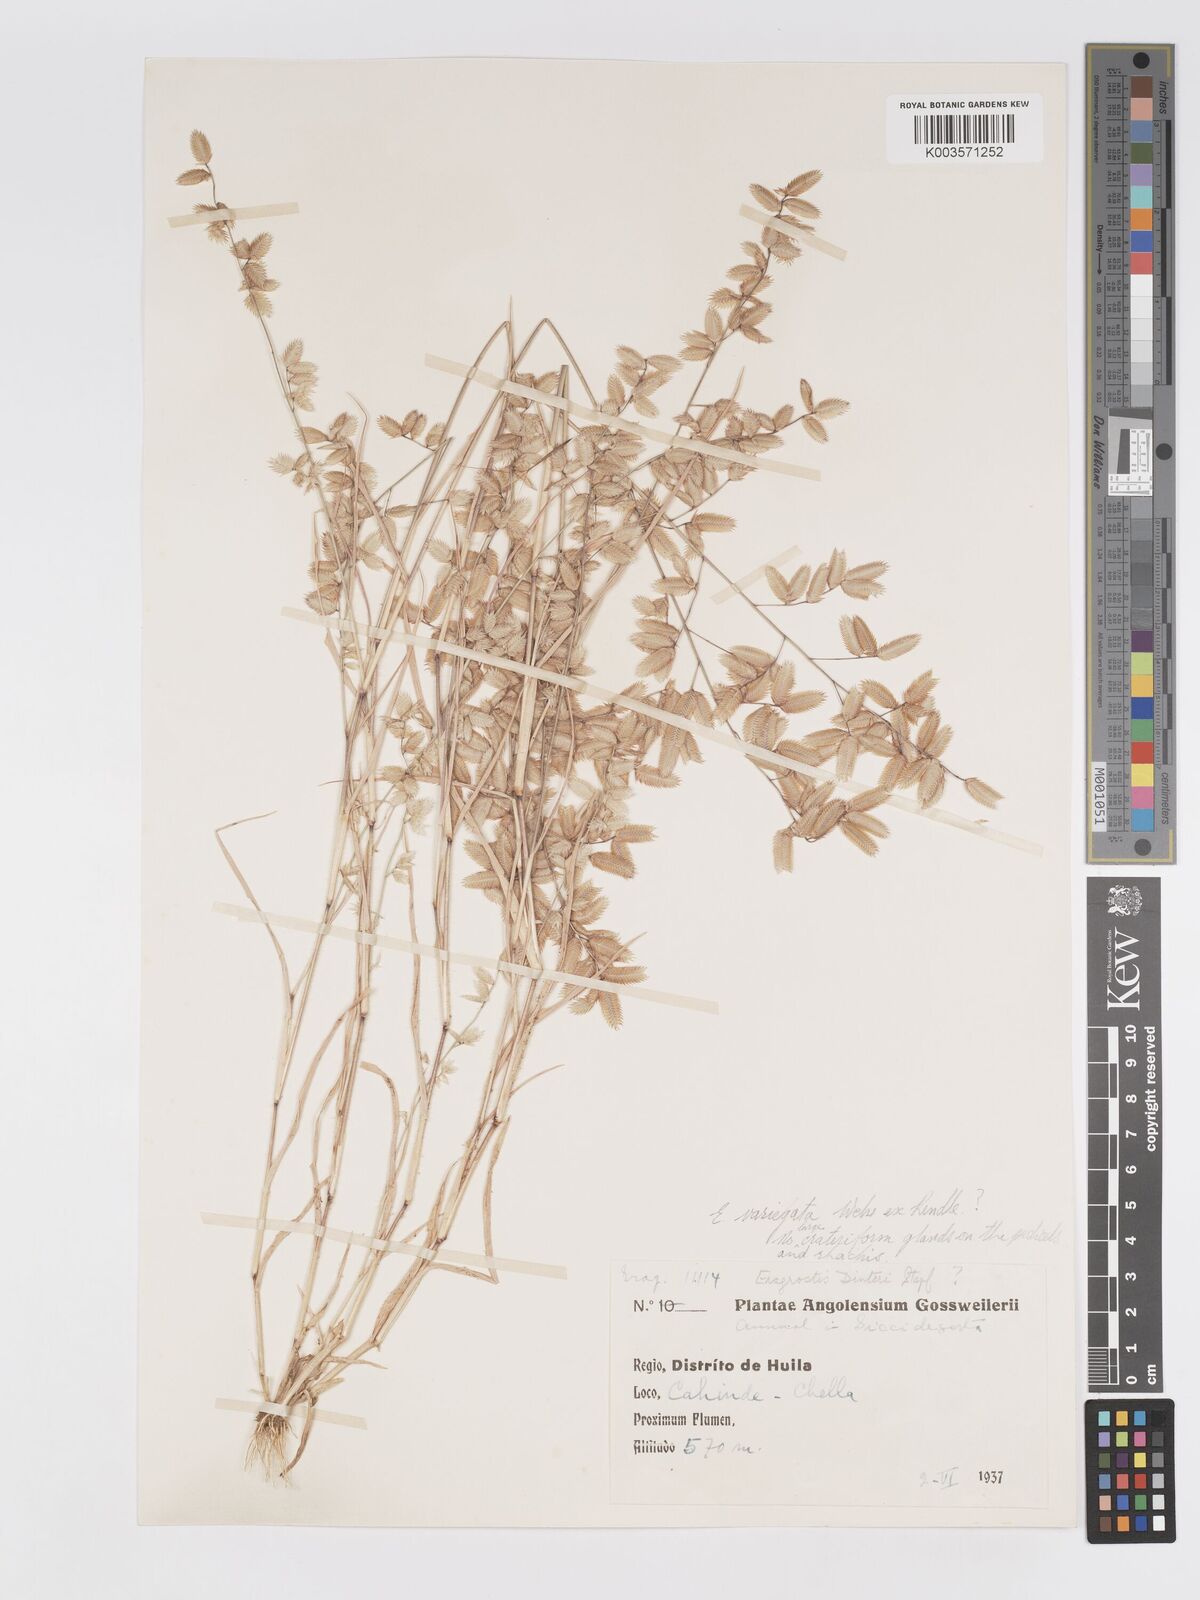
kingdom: Plantae
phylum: Tracheophyta
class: Liliopsida
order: Poales
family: Poaceae
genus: Eragrostis
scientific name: Eragrostis variegata
